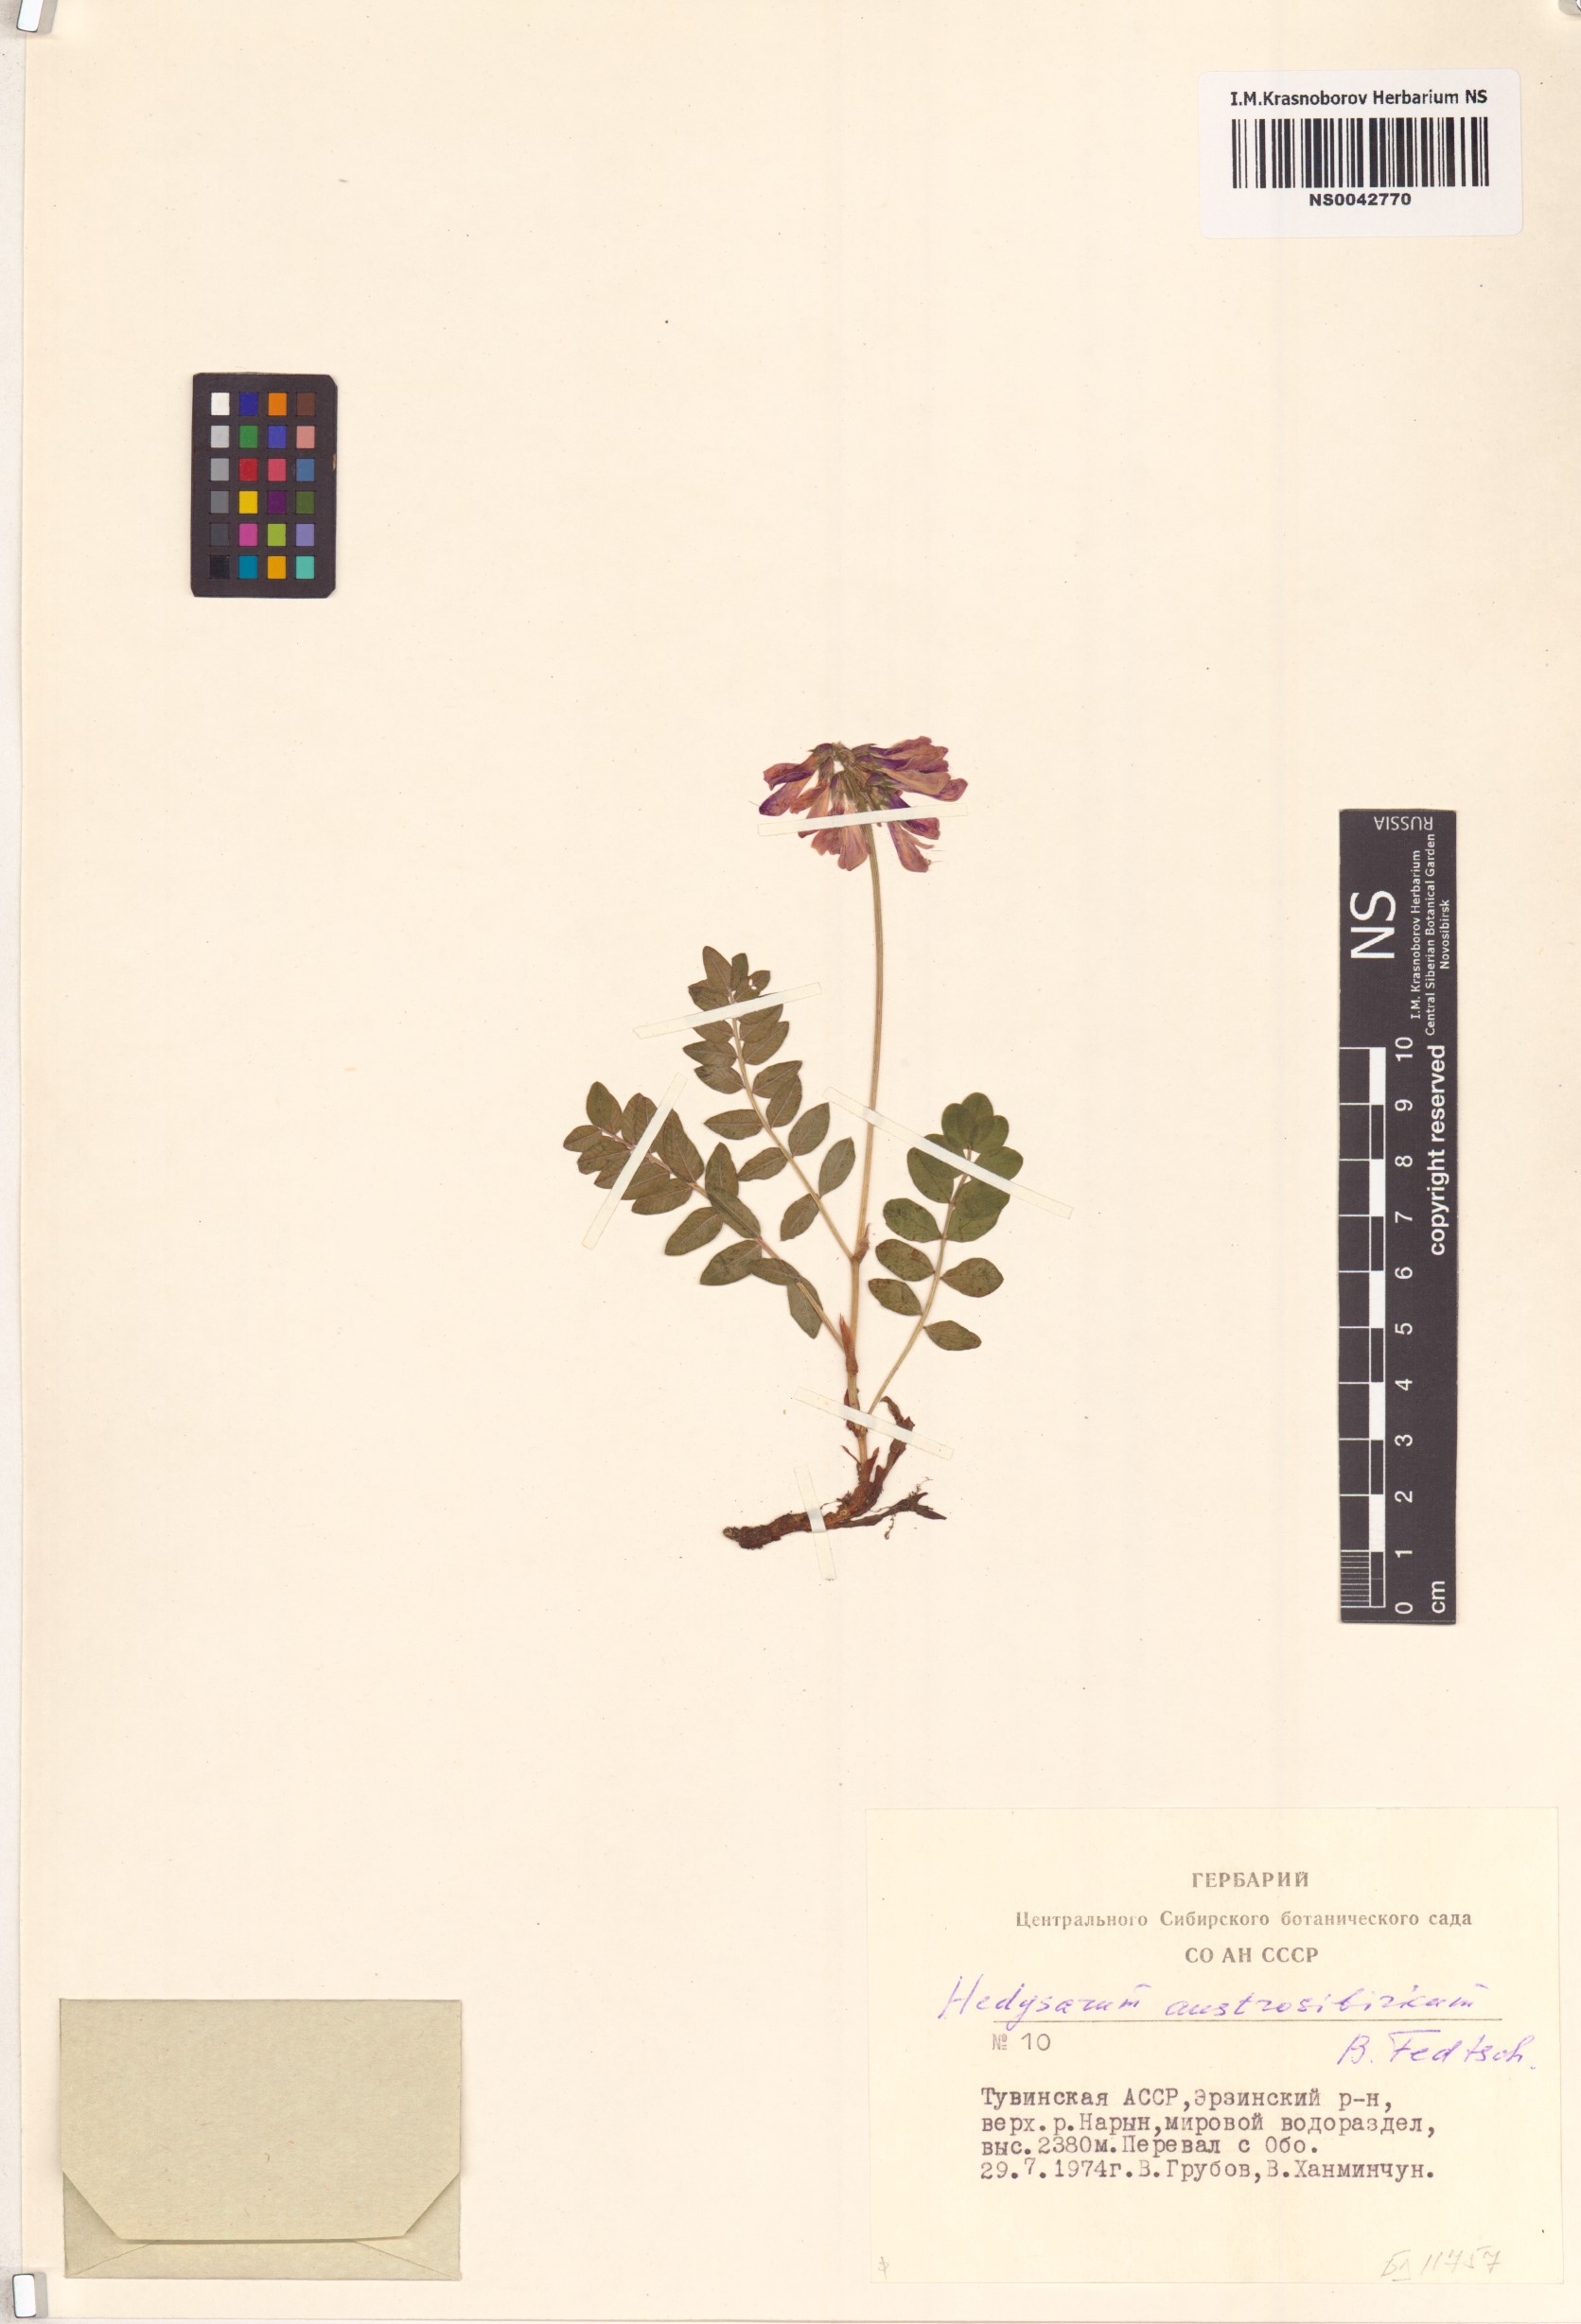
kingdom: Plantae
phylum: Tracheophyta
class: Magnoliopsida
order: Fabales
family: Fabaceae
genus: Hedysarum
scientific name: Hedysarum neglectum
